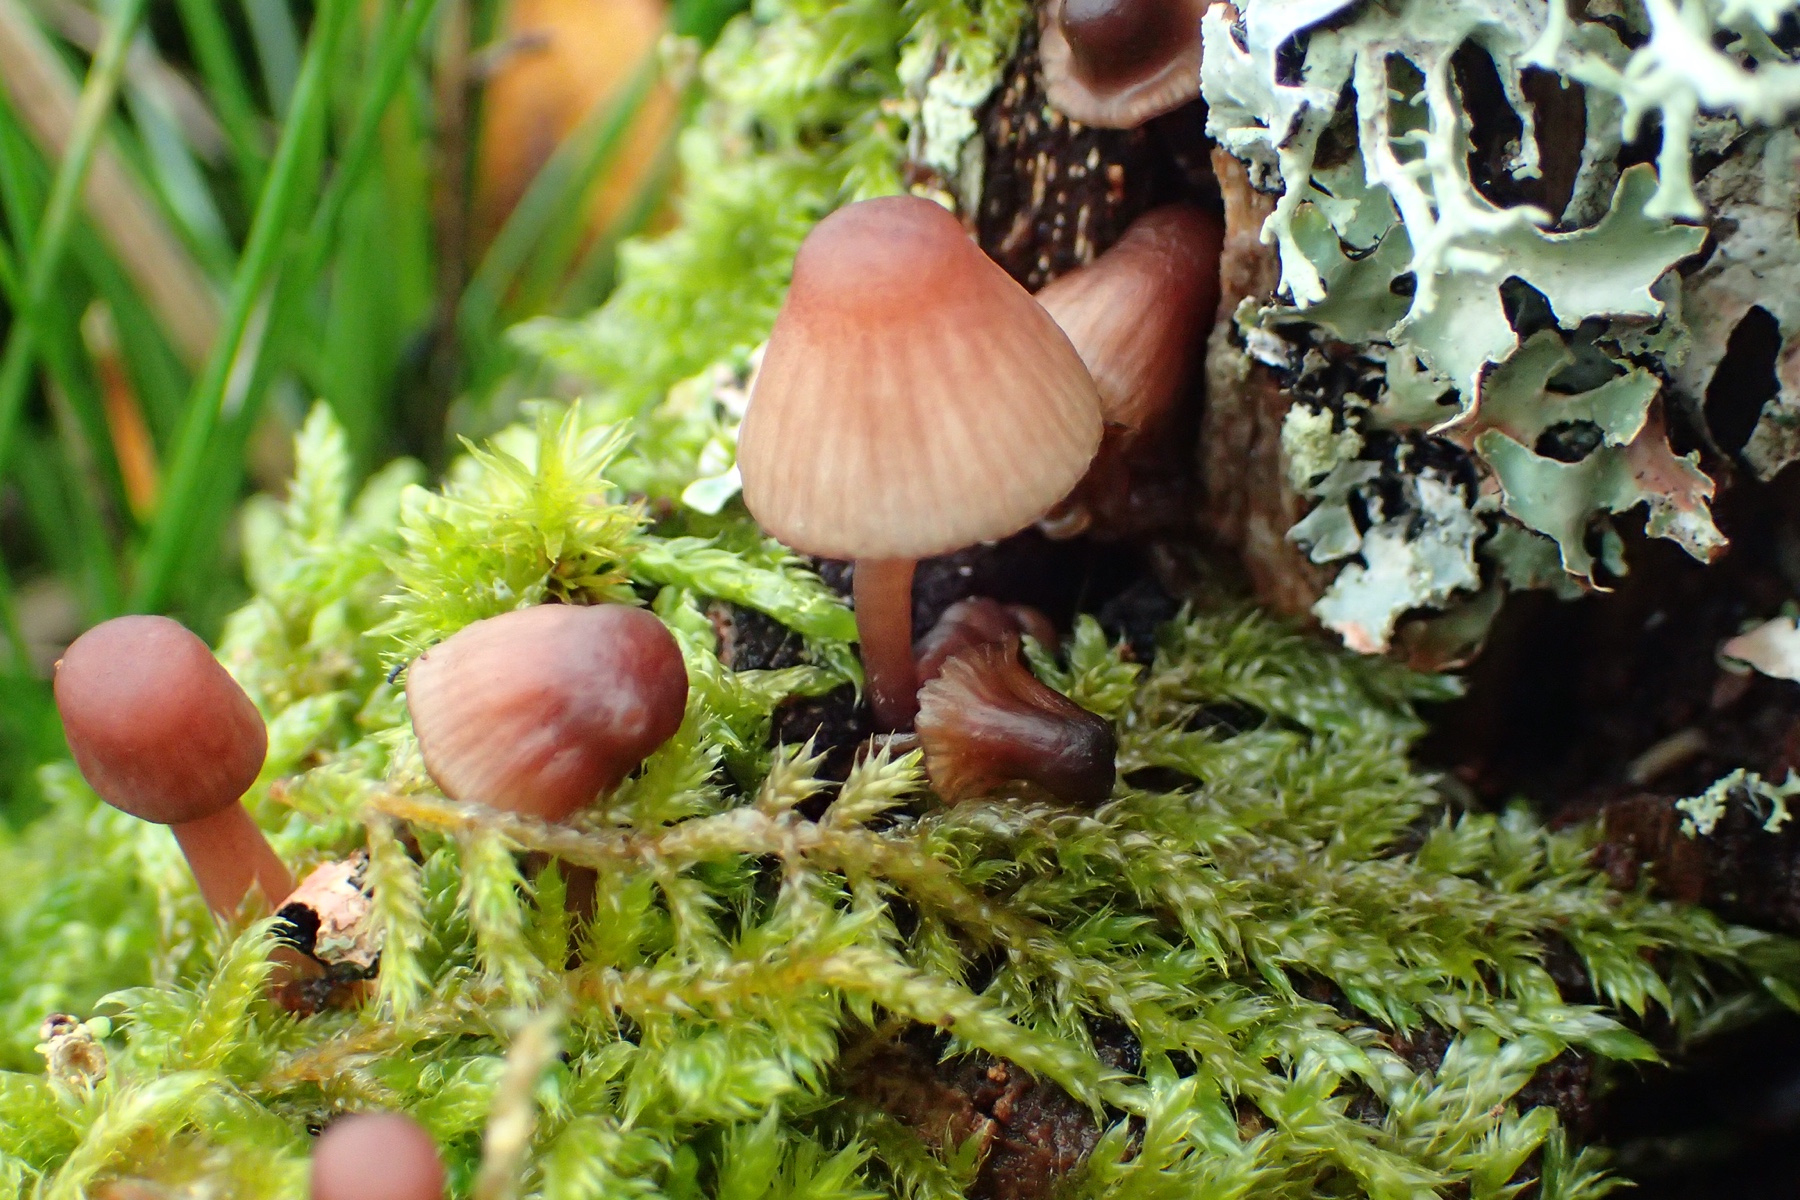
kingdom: Fungi
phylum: Basidiomycota
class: Agaricomycetes
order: Agaricales
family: Mycenaceae
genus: Mycena
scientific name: Mycena sanguinolenta
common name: rødmælket huesvamp
